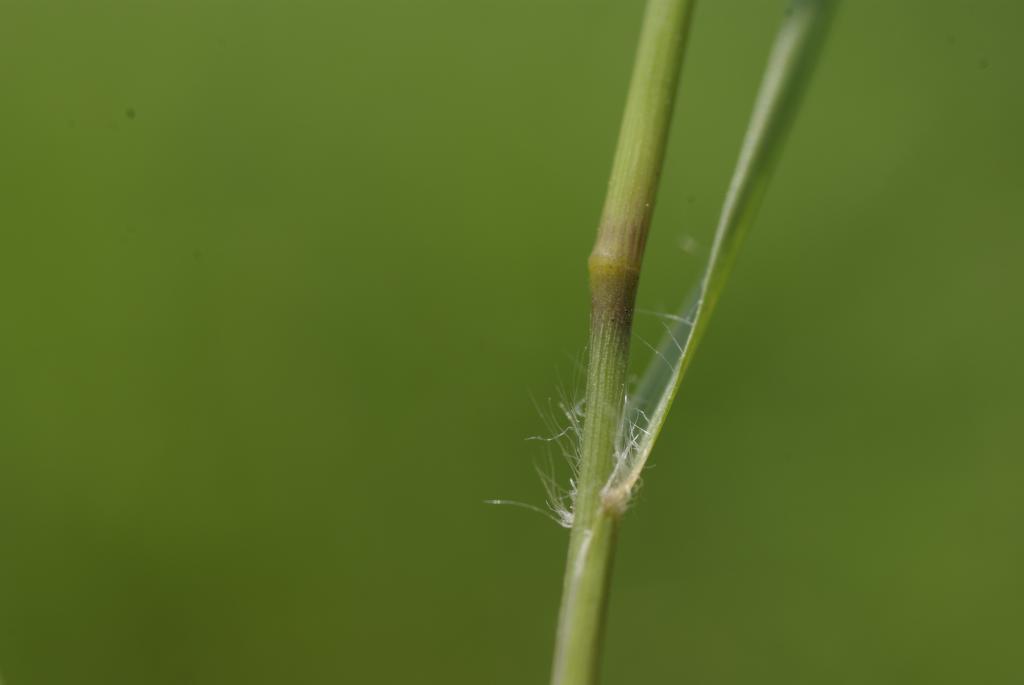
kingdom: Plantae
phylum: Tracheophyta
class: Liliopsida
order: Poales
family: Poaceae
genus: Eragrostis
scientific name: Eragrostis brownii
